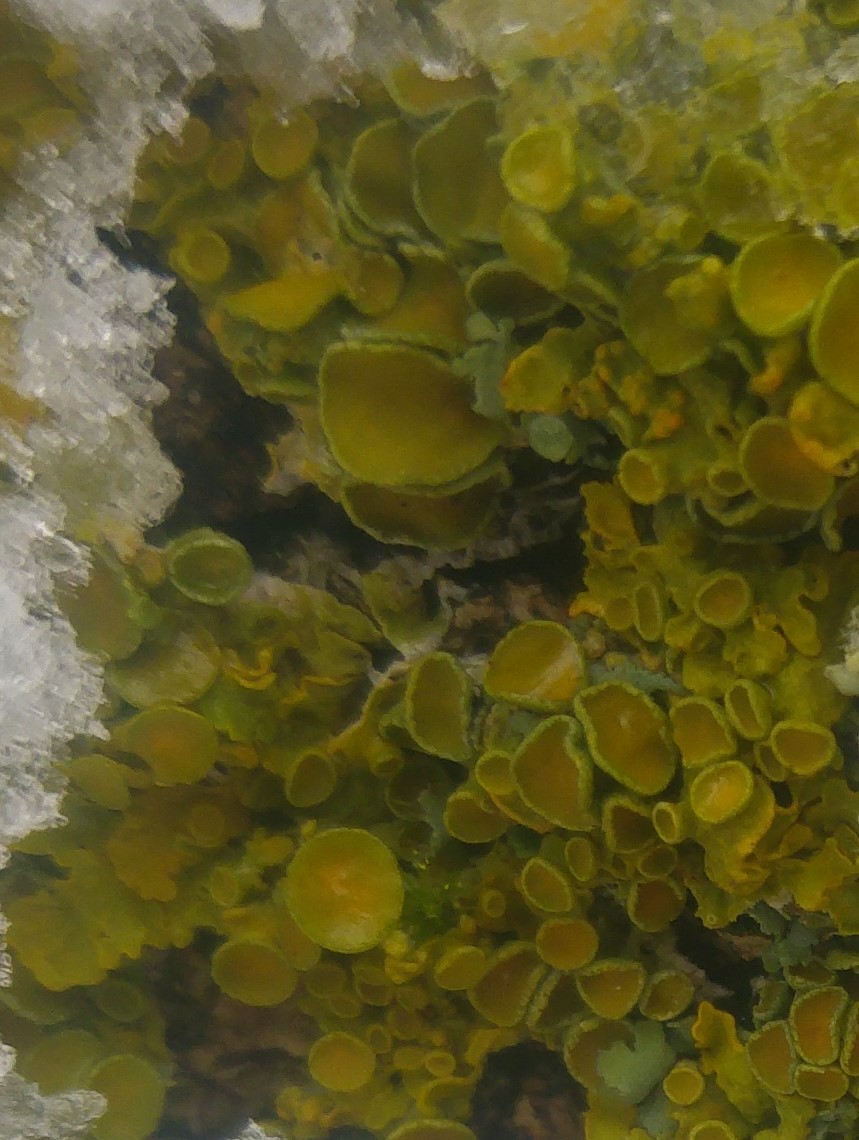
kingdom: Fungi
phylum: Ascomycota
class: Lecanoromycetes
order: Teloschistales
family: Teloschistaceae
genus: Xanthoria
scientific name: Xanthoria parietina
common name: almindelig væggelav
